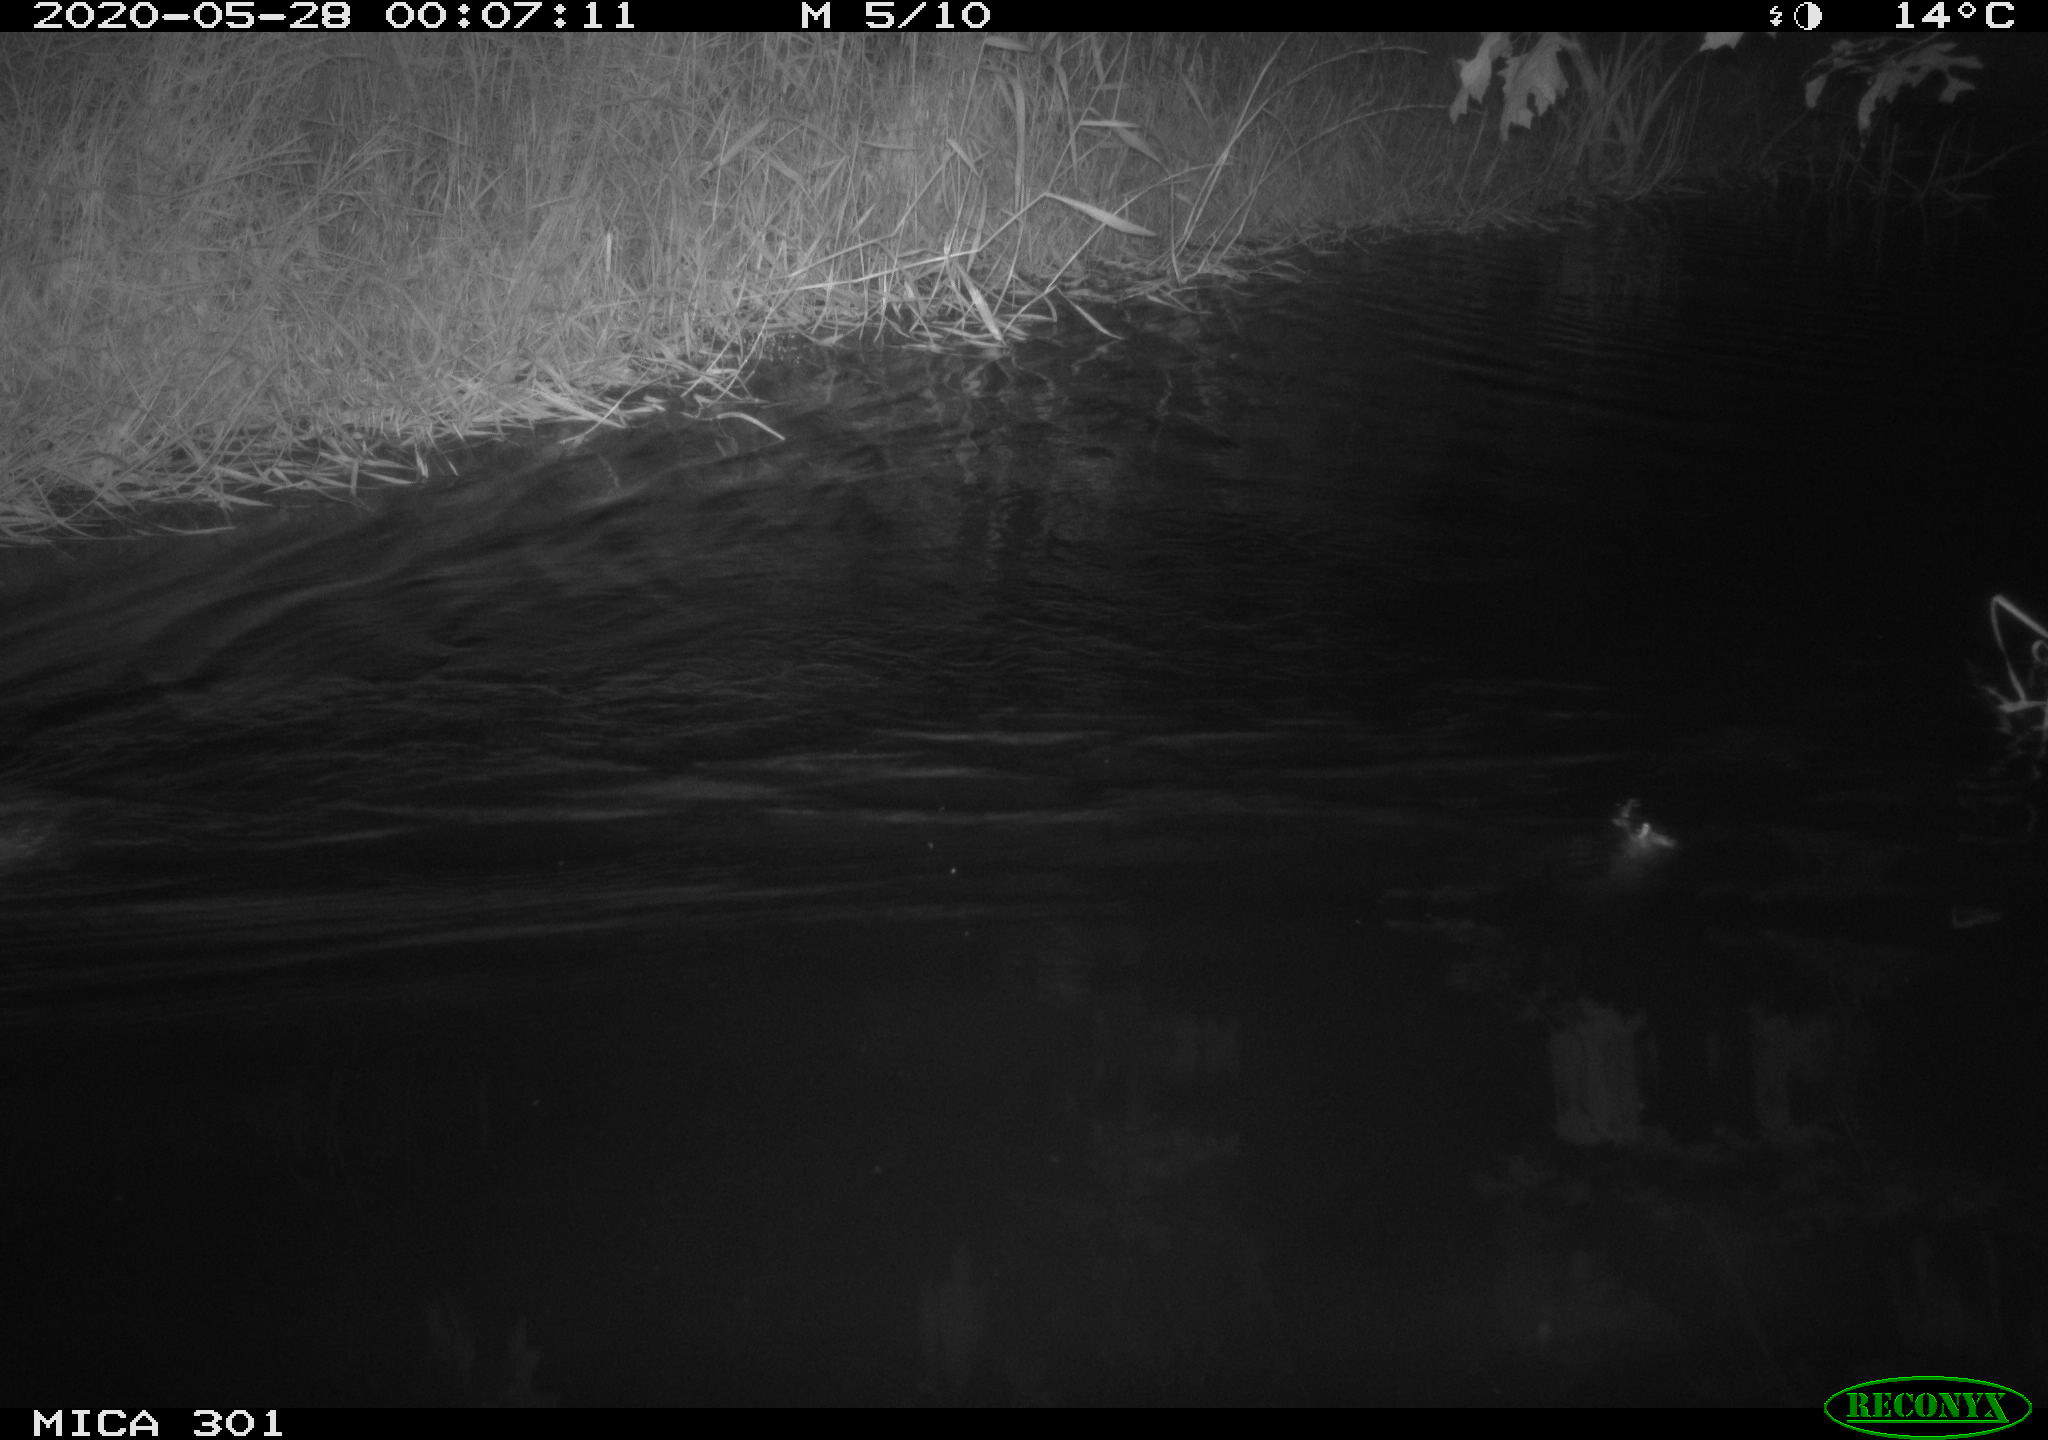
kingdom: Animalia
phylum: Chordata
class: Mammalia
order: Rodentia
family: Castoridae
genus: Castor
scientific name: Castor fiber
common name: Eurasian beaver
